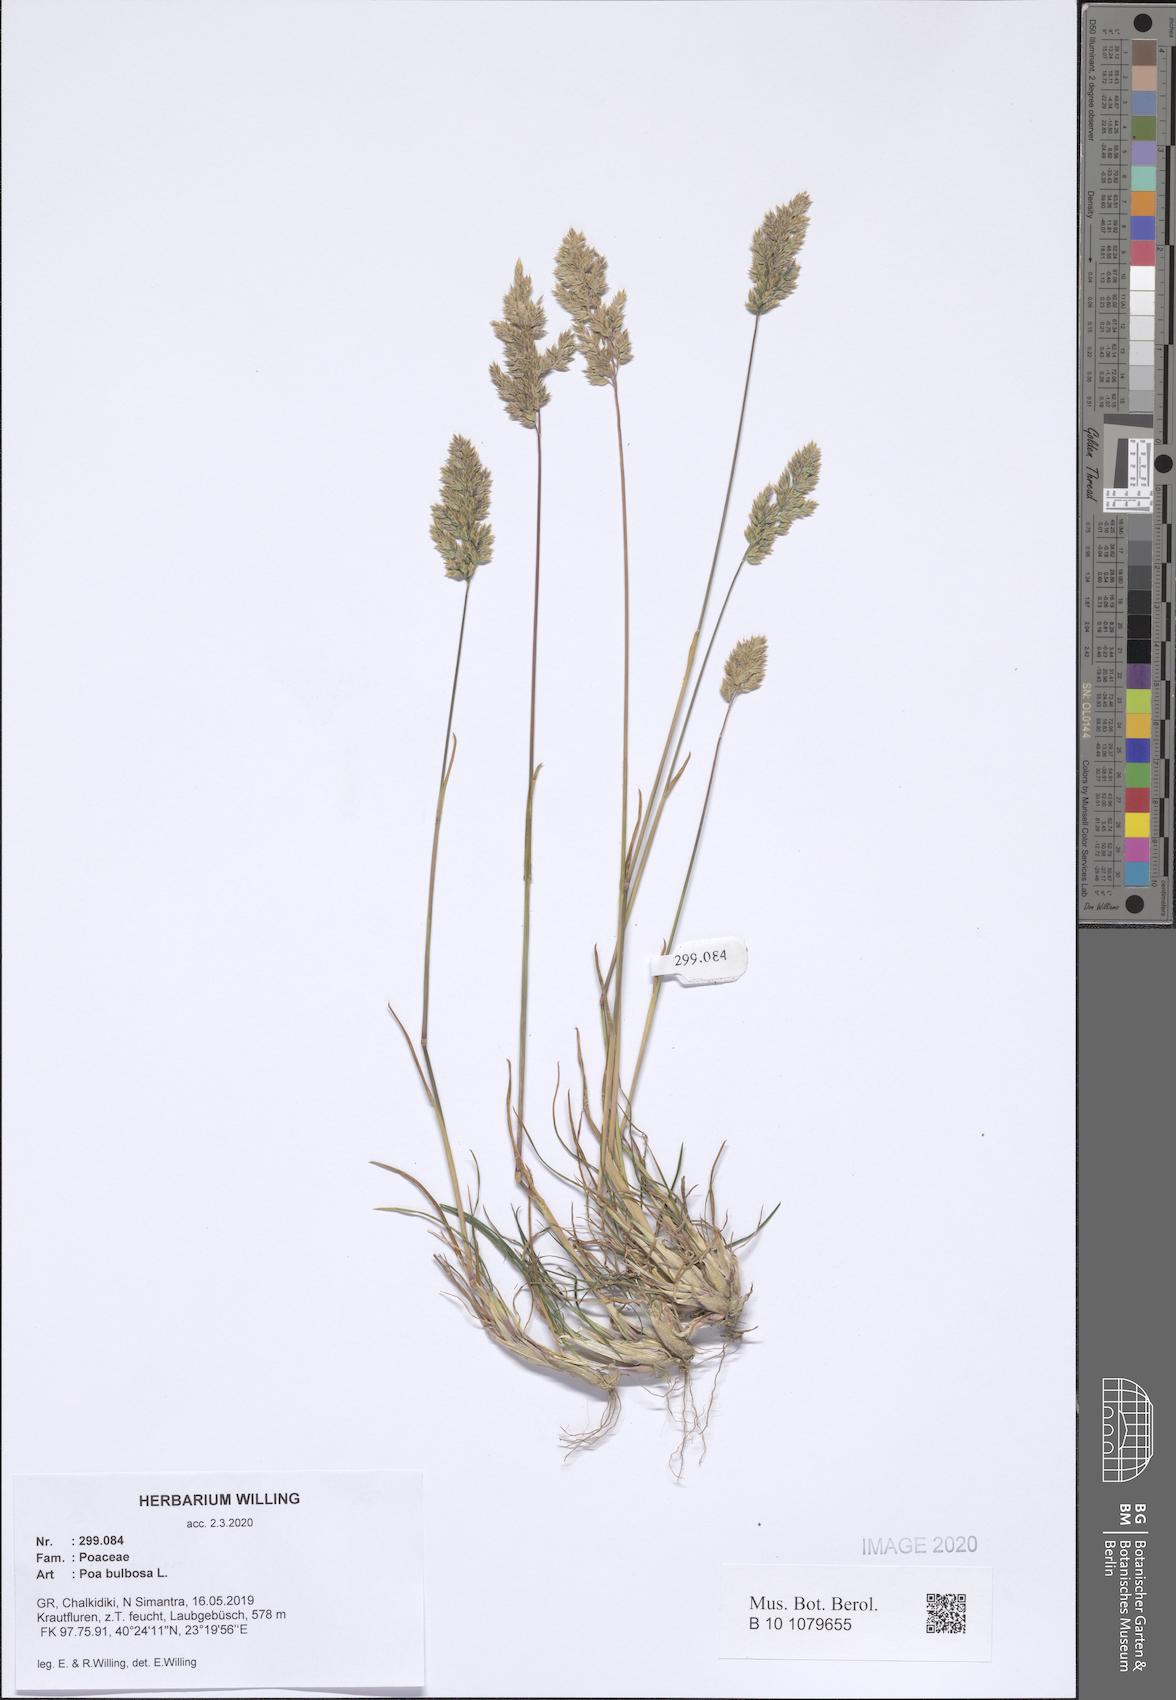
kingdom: Plantae
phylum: Tracheophyta
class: Liliopsida
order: Poales
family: Poaceae
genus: Poa
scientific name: Poa bulbosa
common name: Bulbous bluegrass
